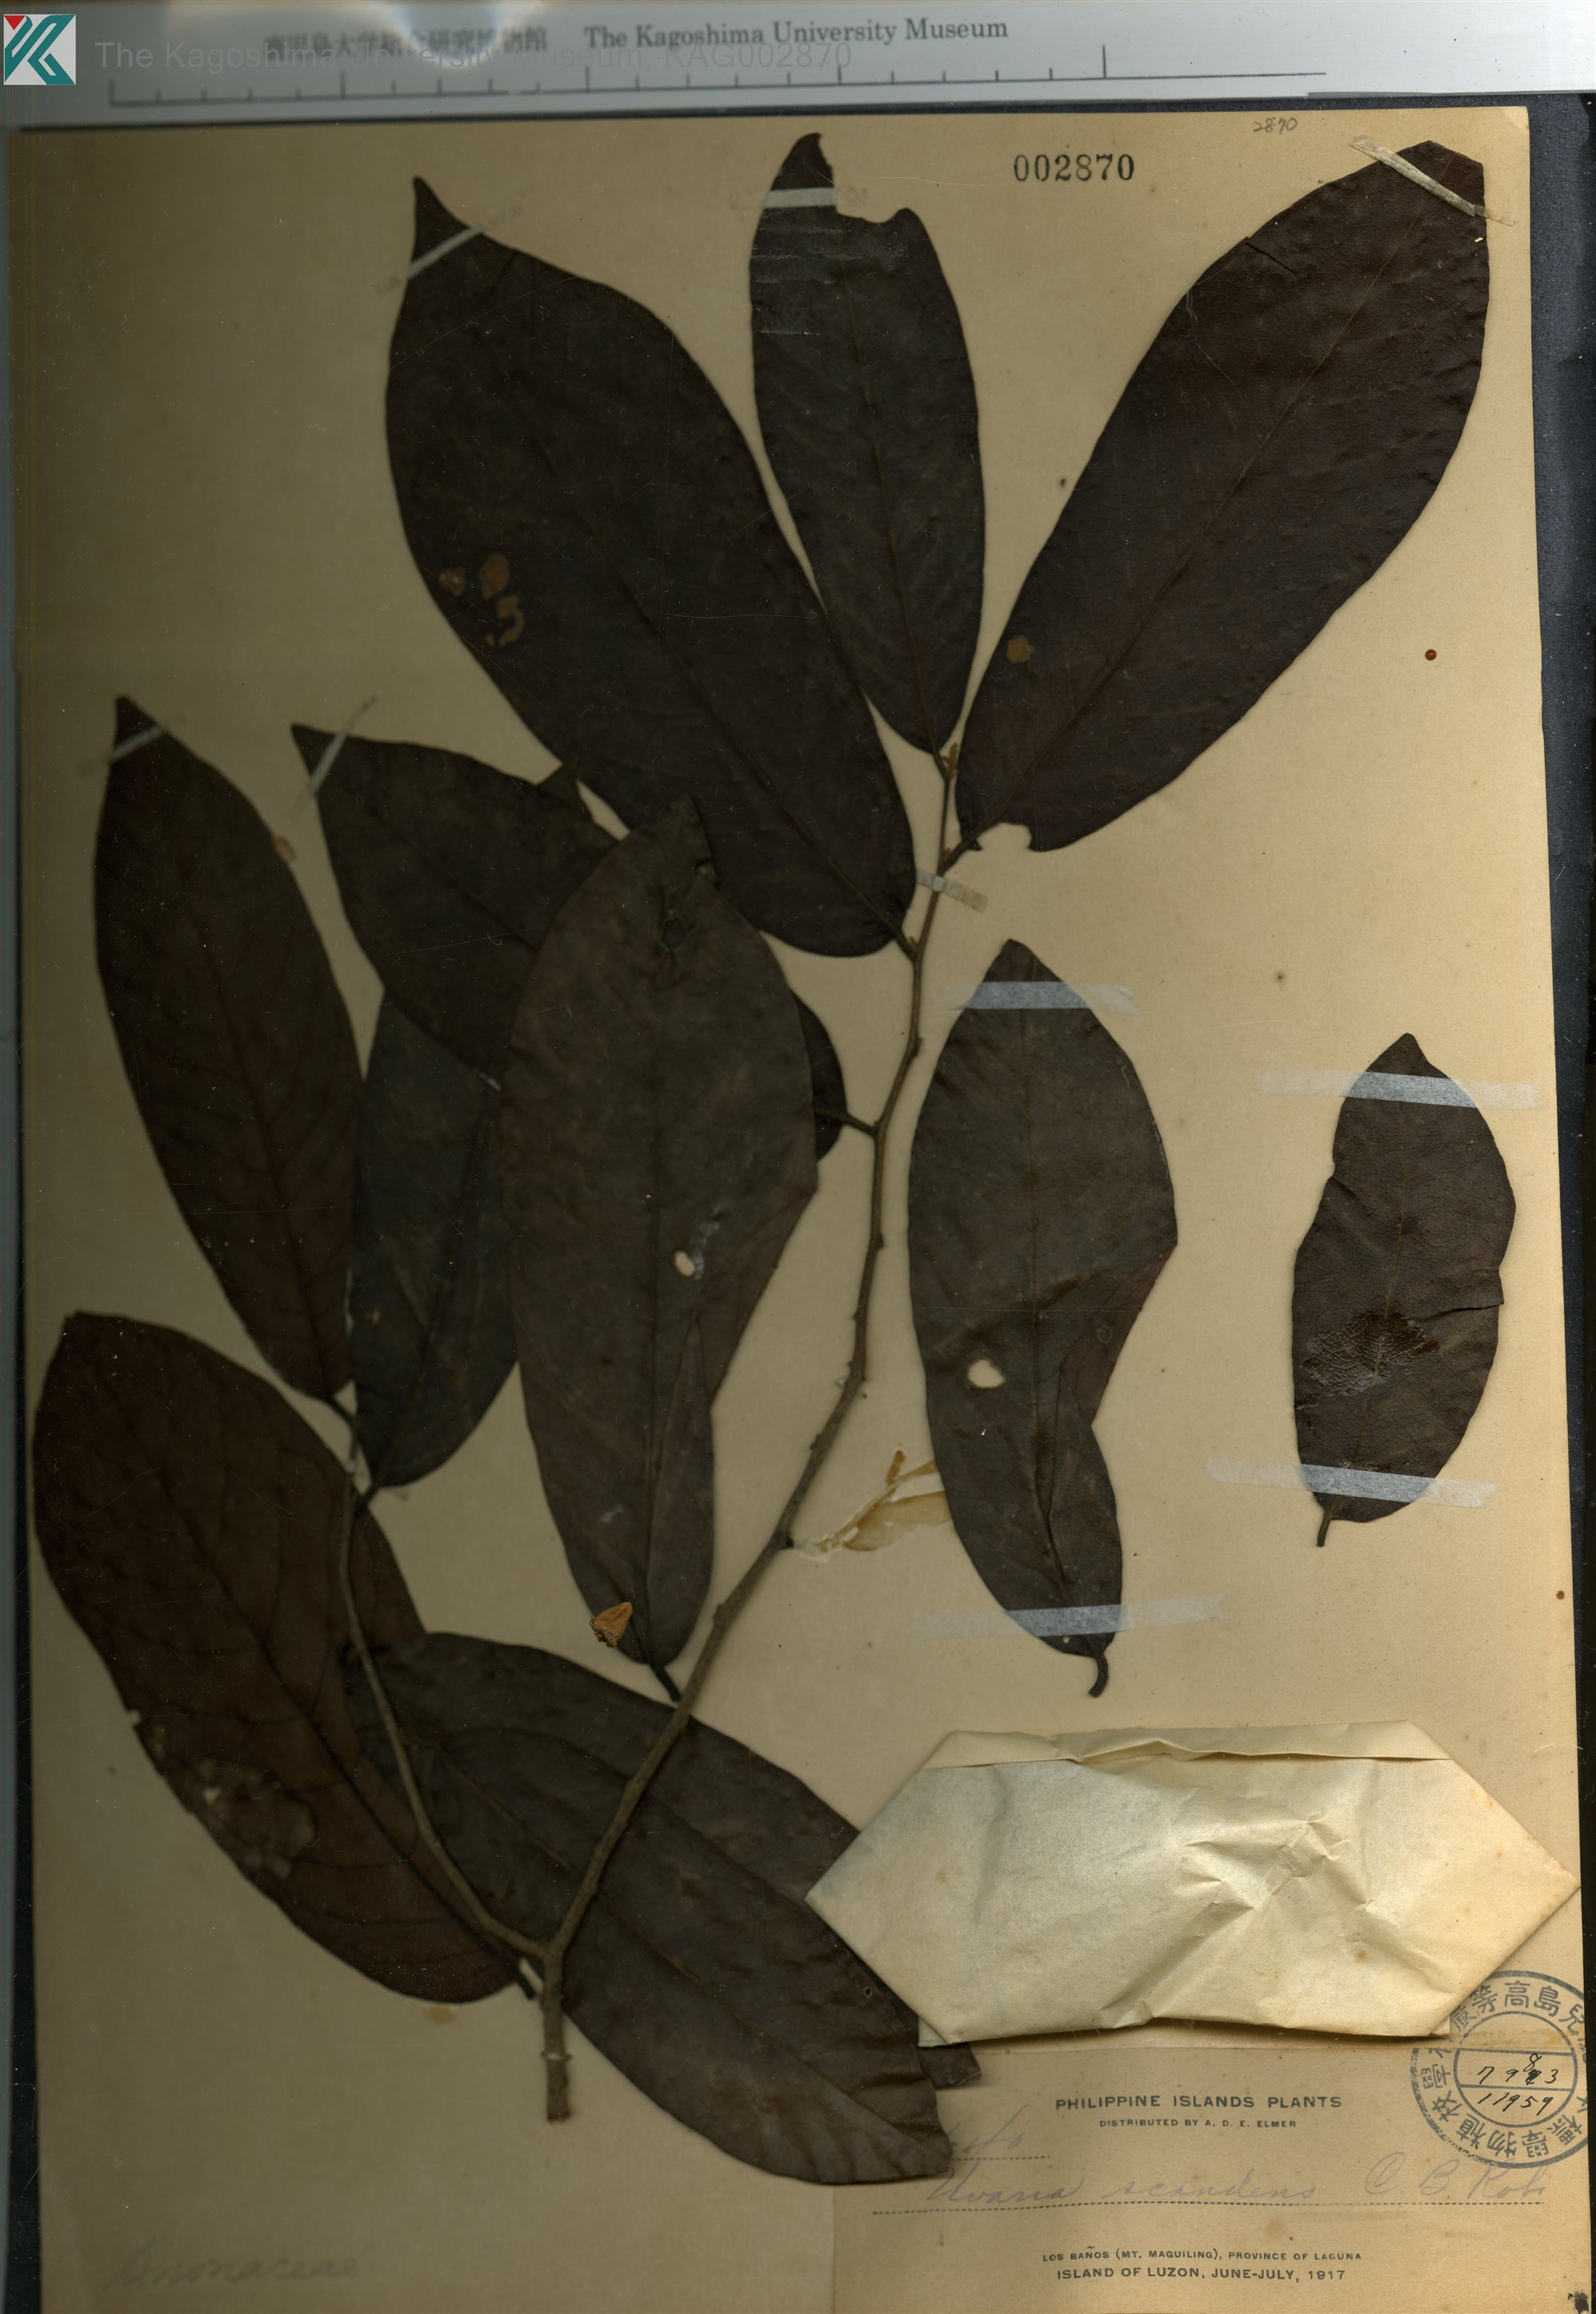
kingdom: Plantae
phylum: Tracheophyta
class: Magnoliopsida
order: Magnoliales
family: Annonaceae
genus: Uvaria
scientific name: Uvaria monticola
